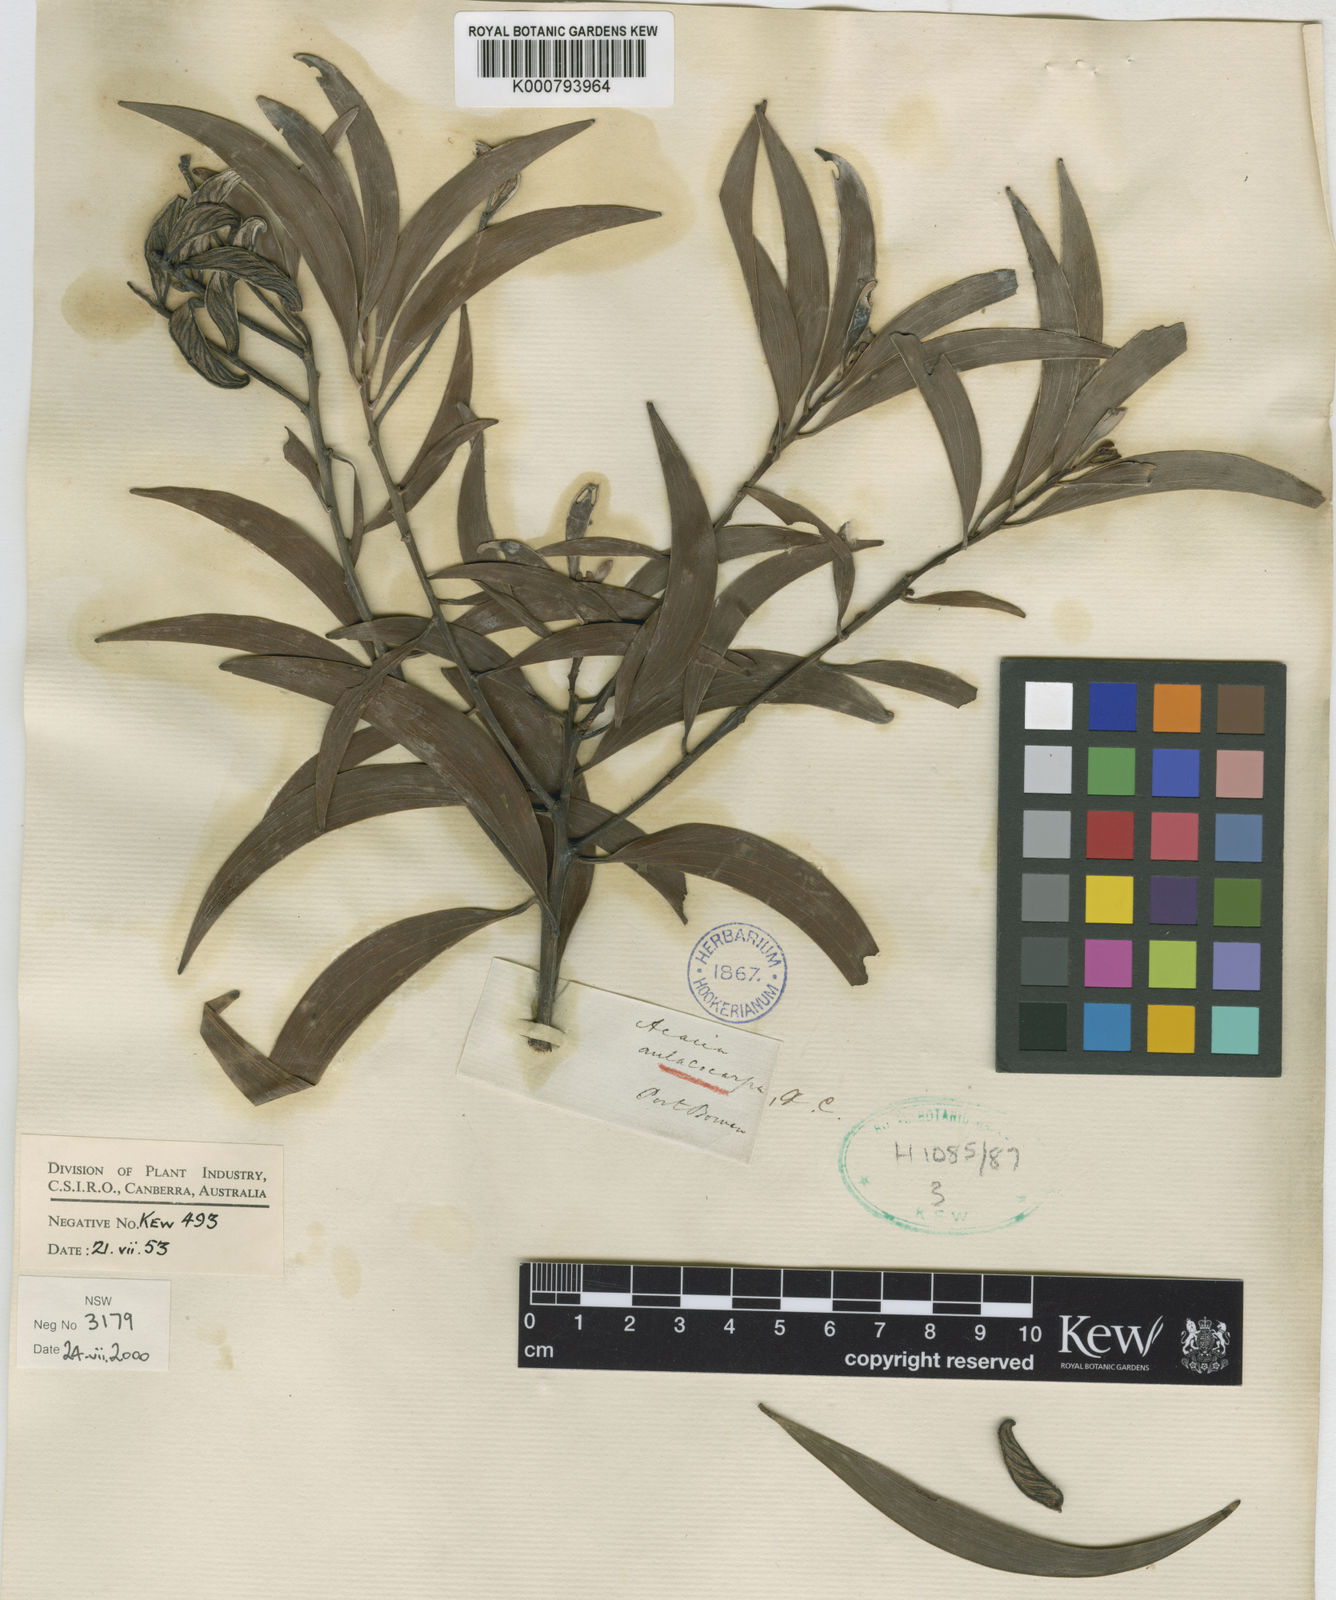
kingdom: Plantae
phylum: Tracheophyta
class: Magnoliopsida
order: Fabales
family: Fabaceae
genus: Acacia
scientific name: Acacia aulacocarpa
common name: Black wattle
